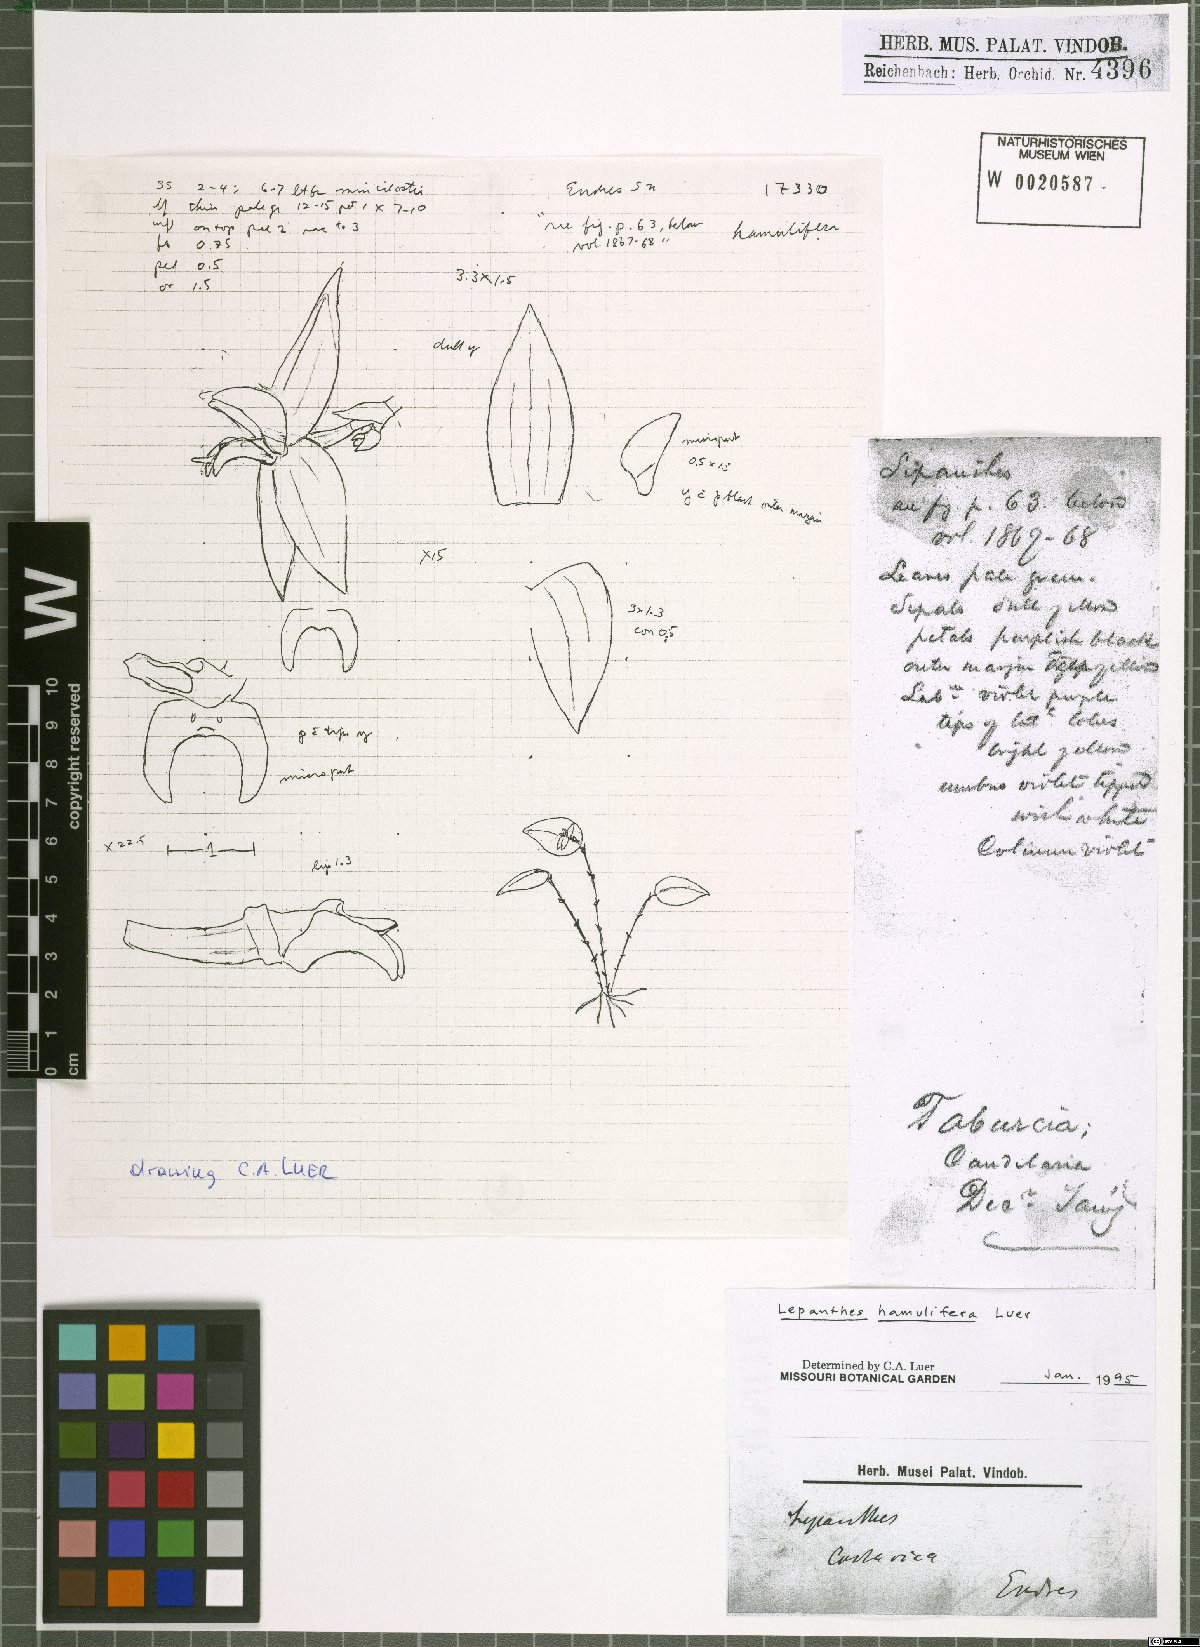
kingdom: Plantae
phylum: Tracheophyta
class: Liliopsida
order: Asparagales
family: Orchidaceae
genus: Lepanthes
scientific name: Lepanthes hamulifera
